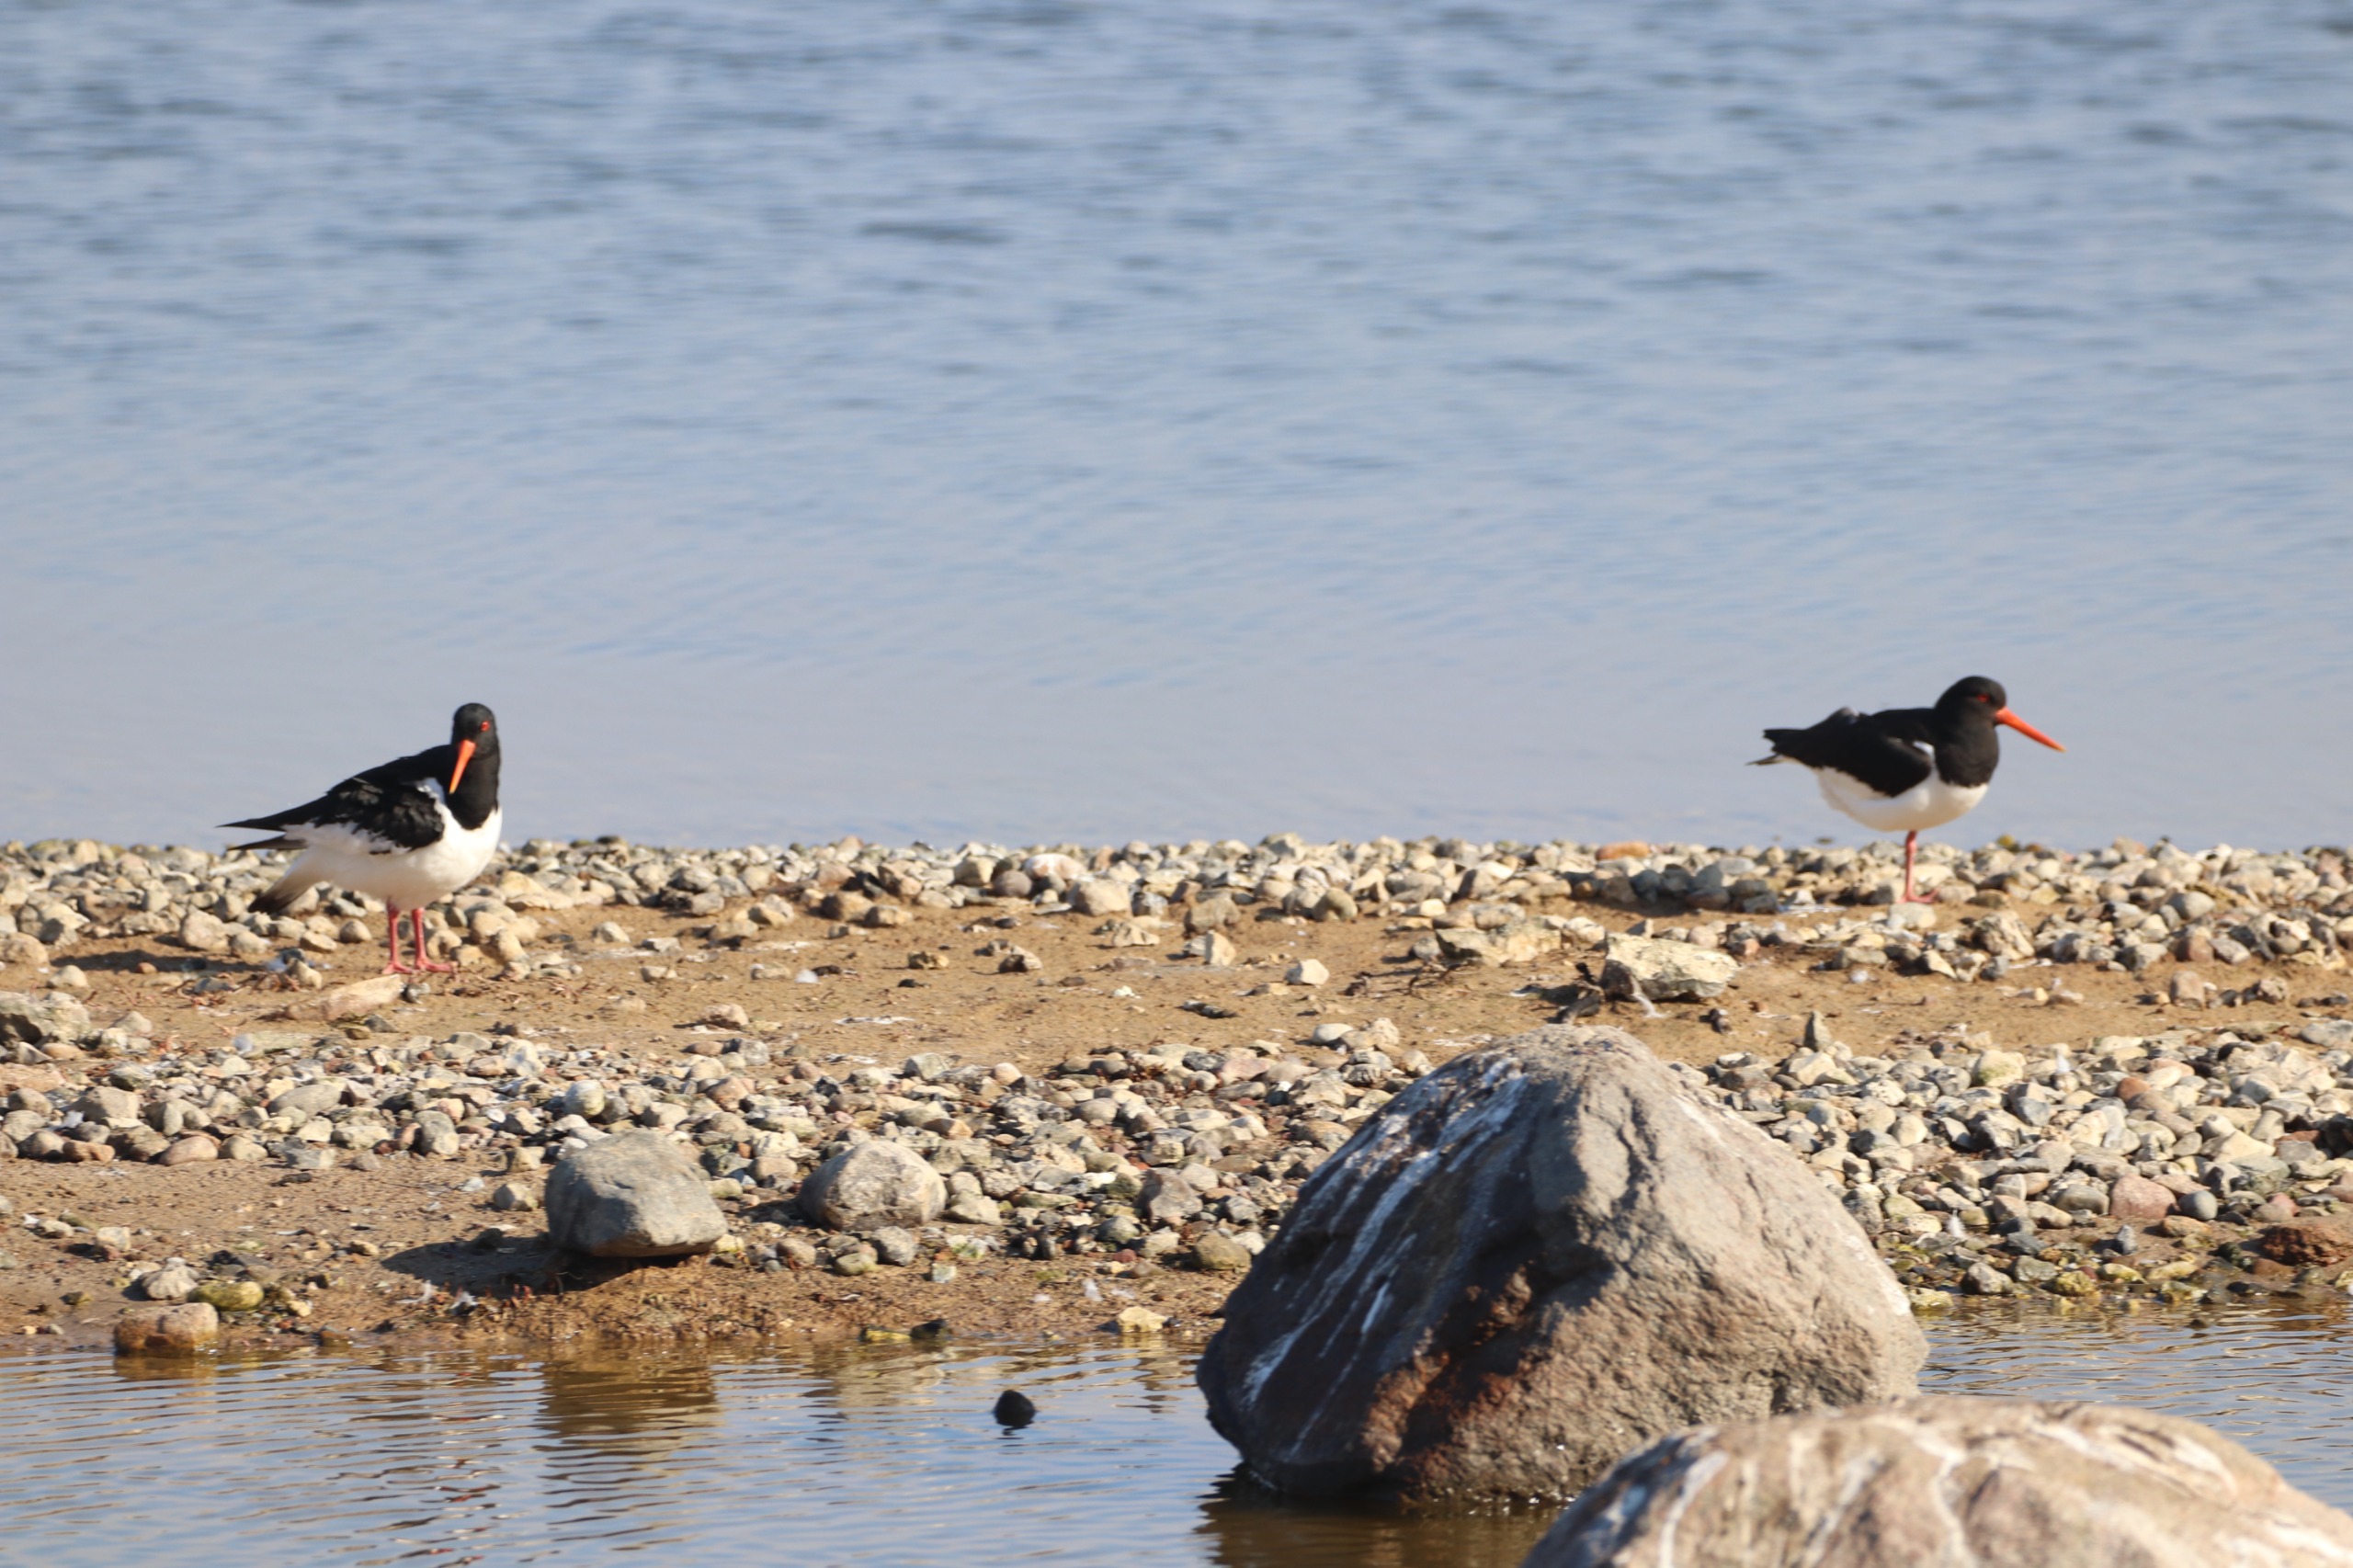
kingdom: Animalia
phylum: Chordata
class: Aves
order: Charadriiformes
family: Haematopodidae
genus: Haematopus
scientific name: Haematopus ostralegus
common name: Strandskade
